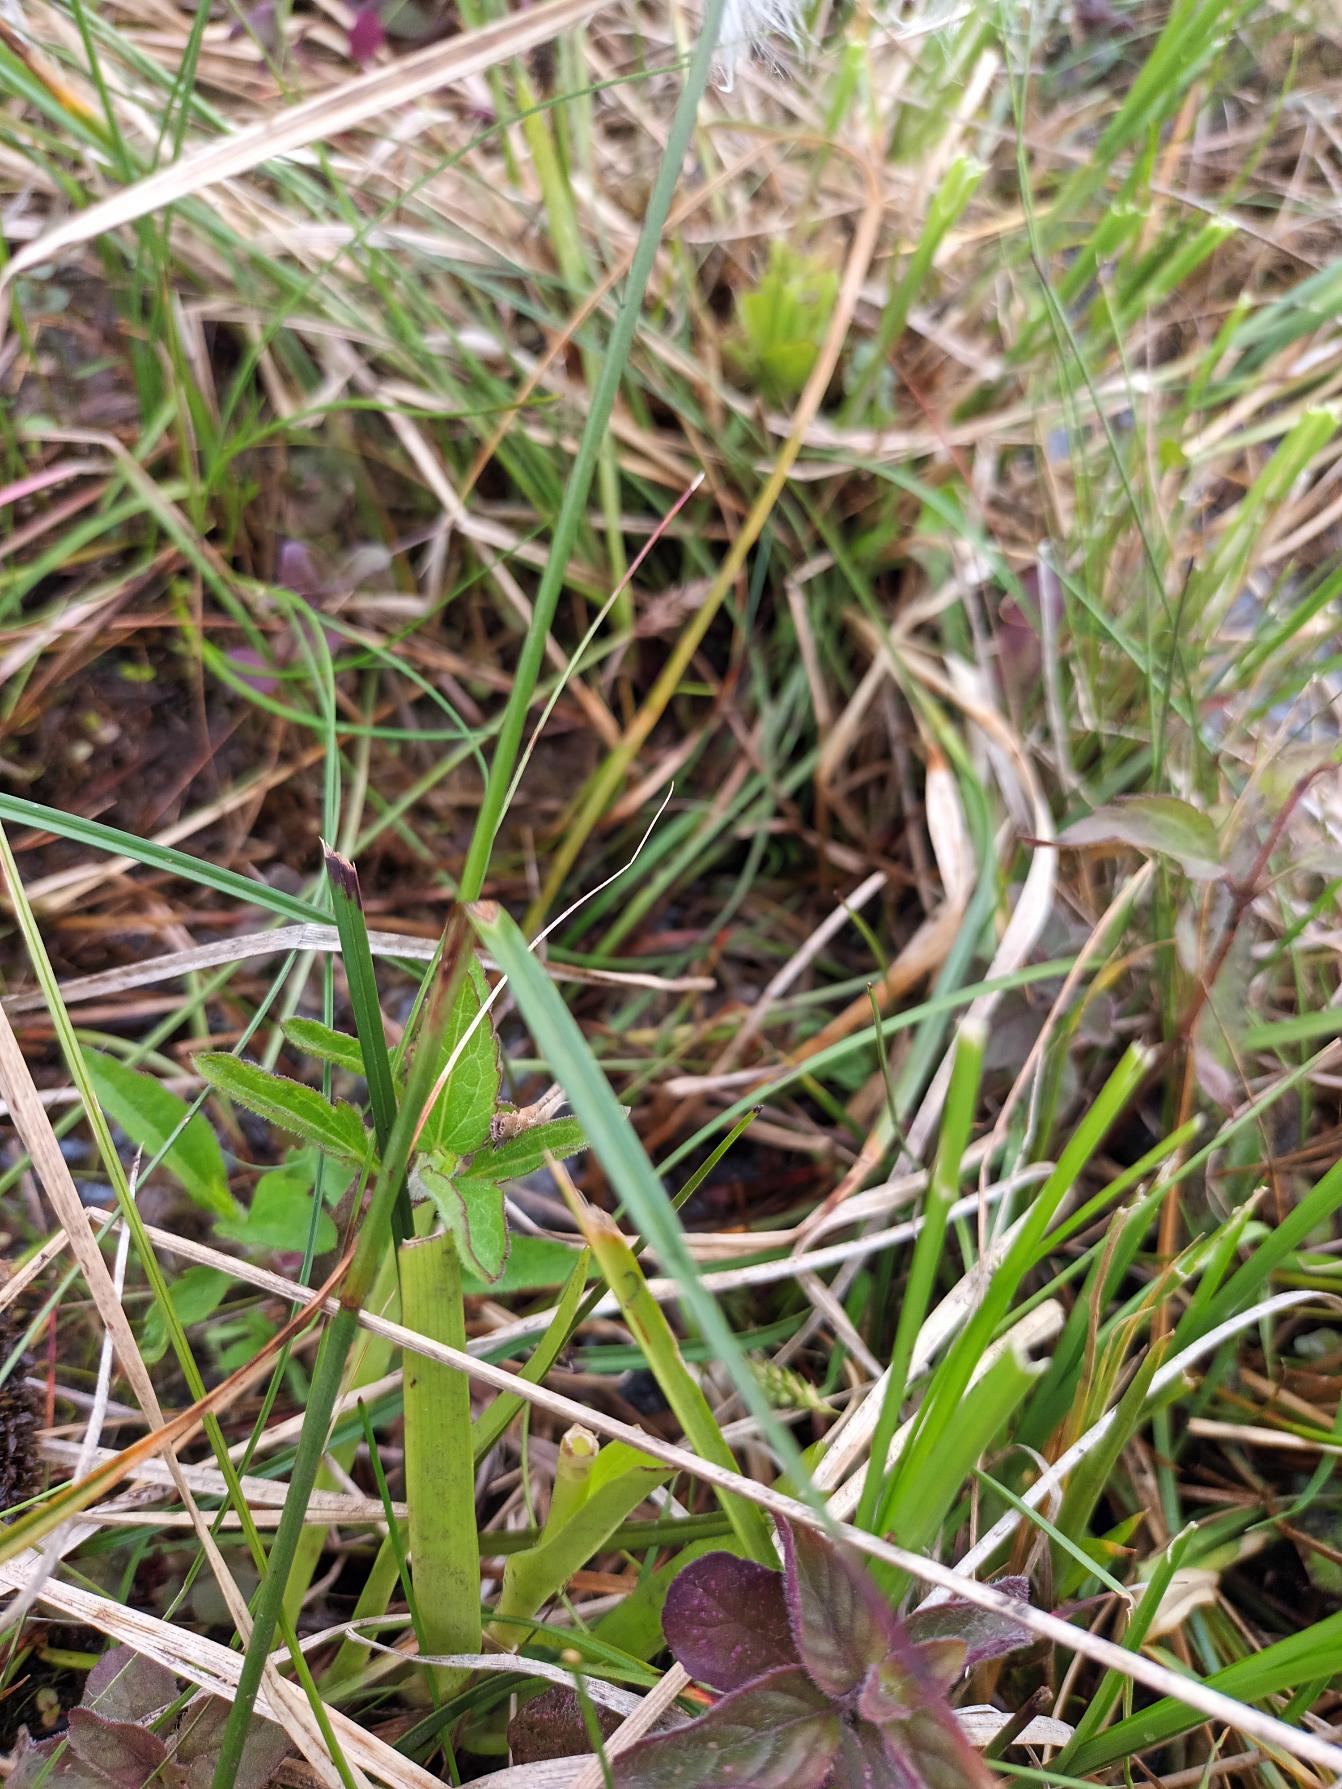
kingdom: Plantae
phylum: Tracheophyta
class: Liliopsida
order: Poales
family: Cyperaceae
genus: Eriophorum
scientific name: Eriophorum angustifolium
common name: Smalbladet kæruld
